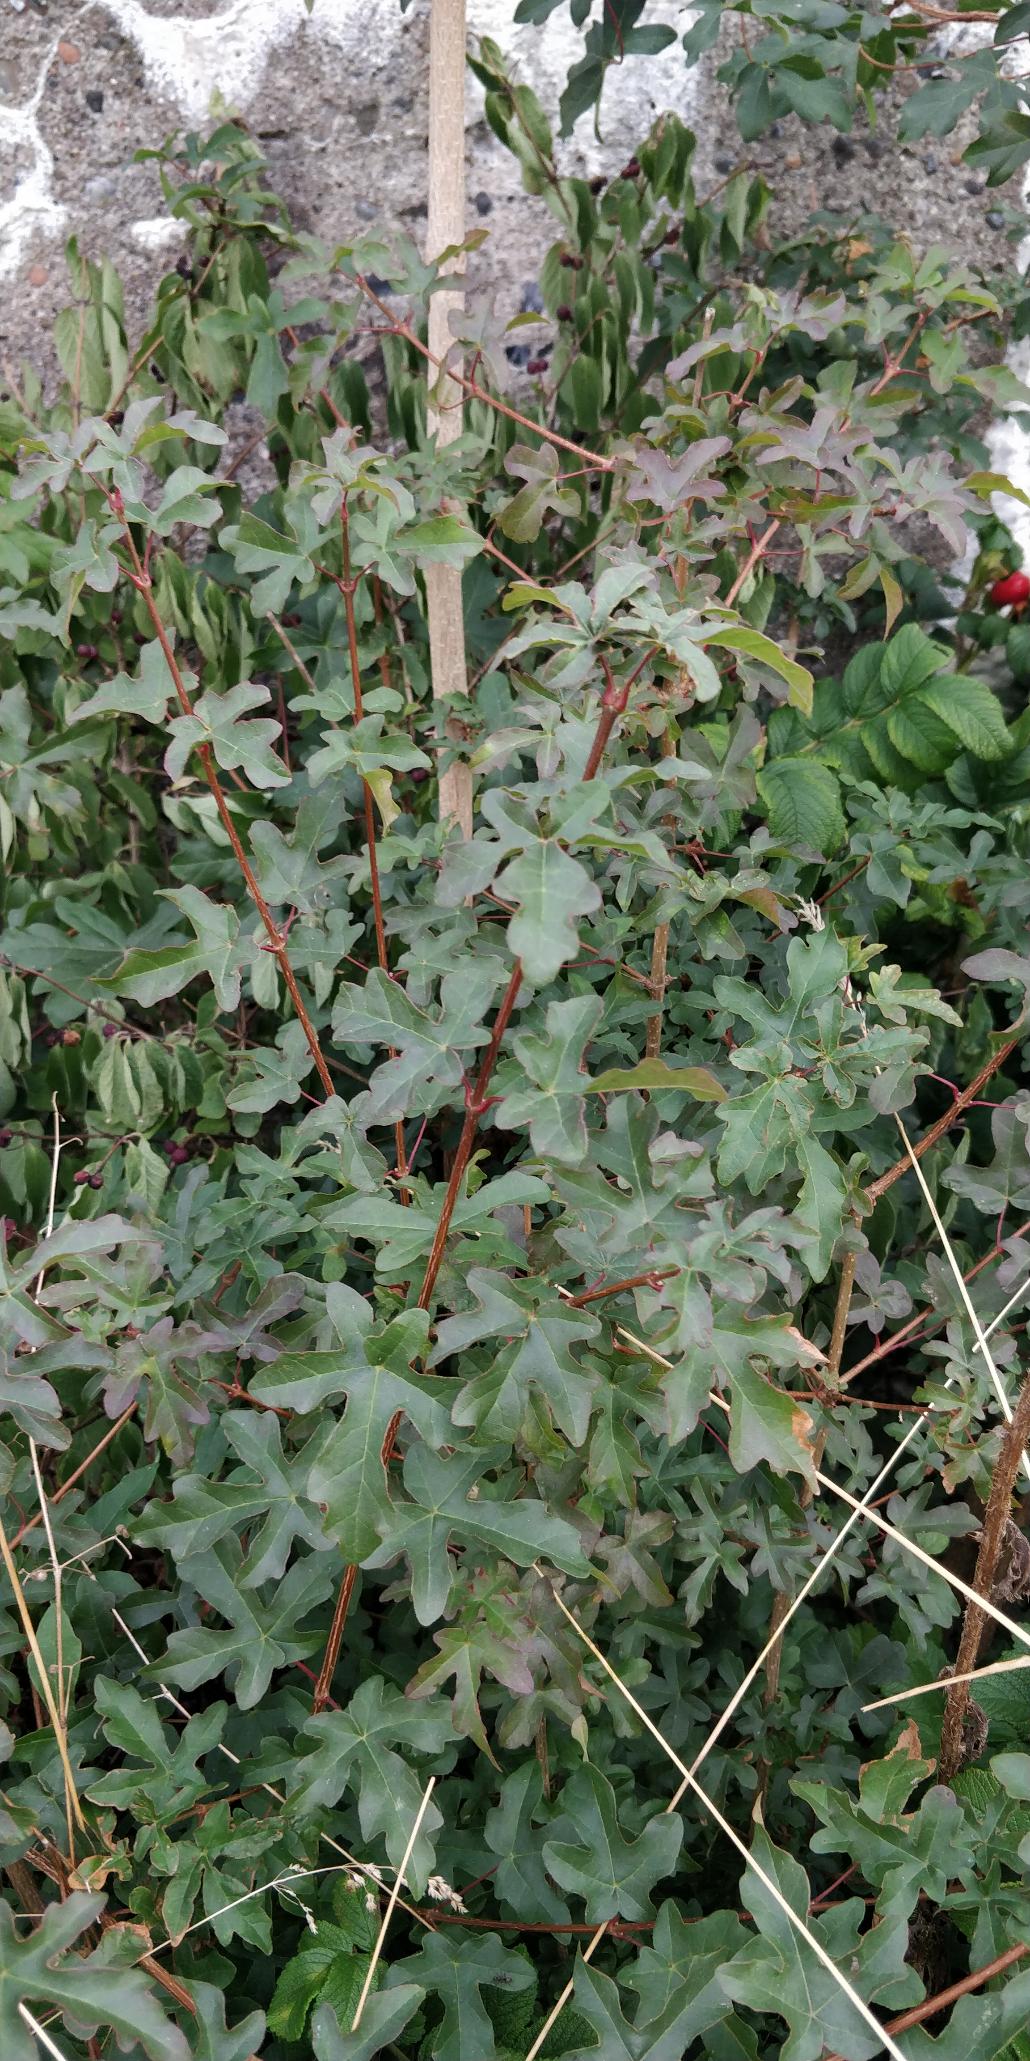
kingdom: Plantae
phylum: Tracheophyta
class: Magnoliopsida
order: Sapindales
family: Sapindaceae
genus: Acer
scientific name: Acer campestre
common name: Navr
